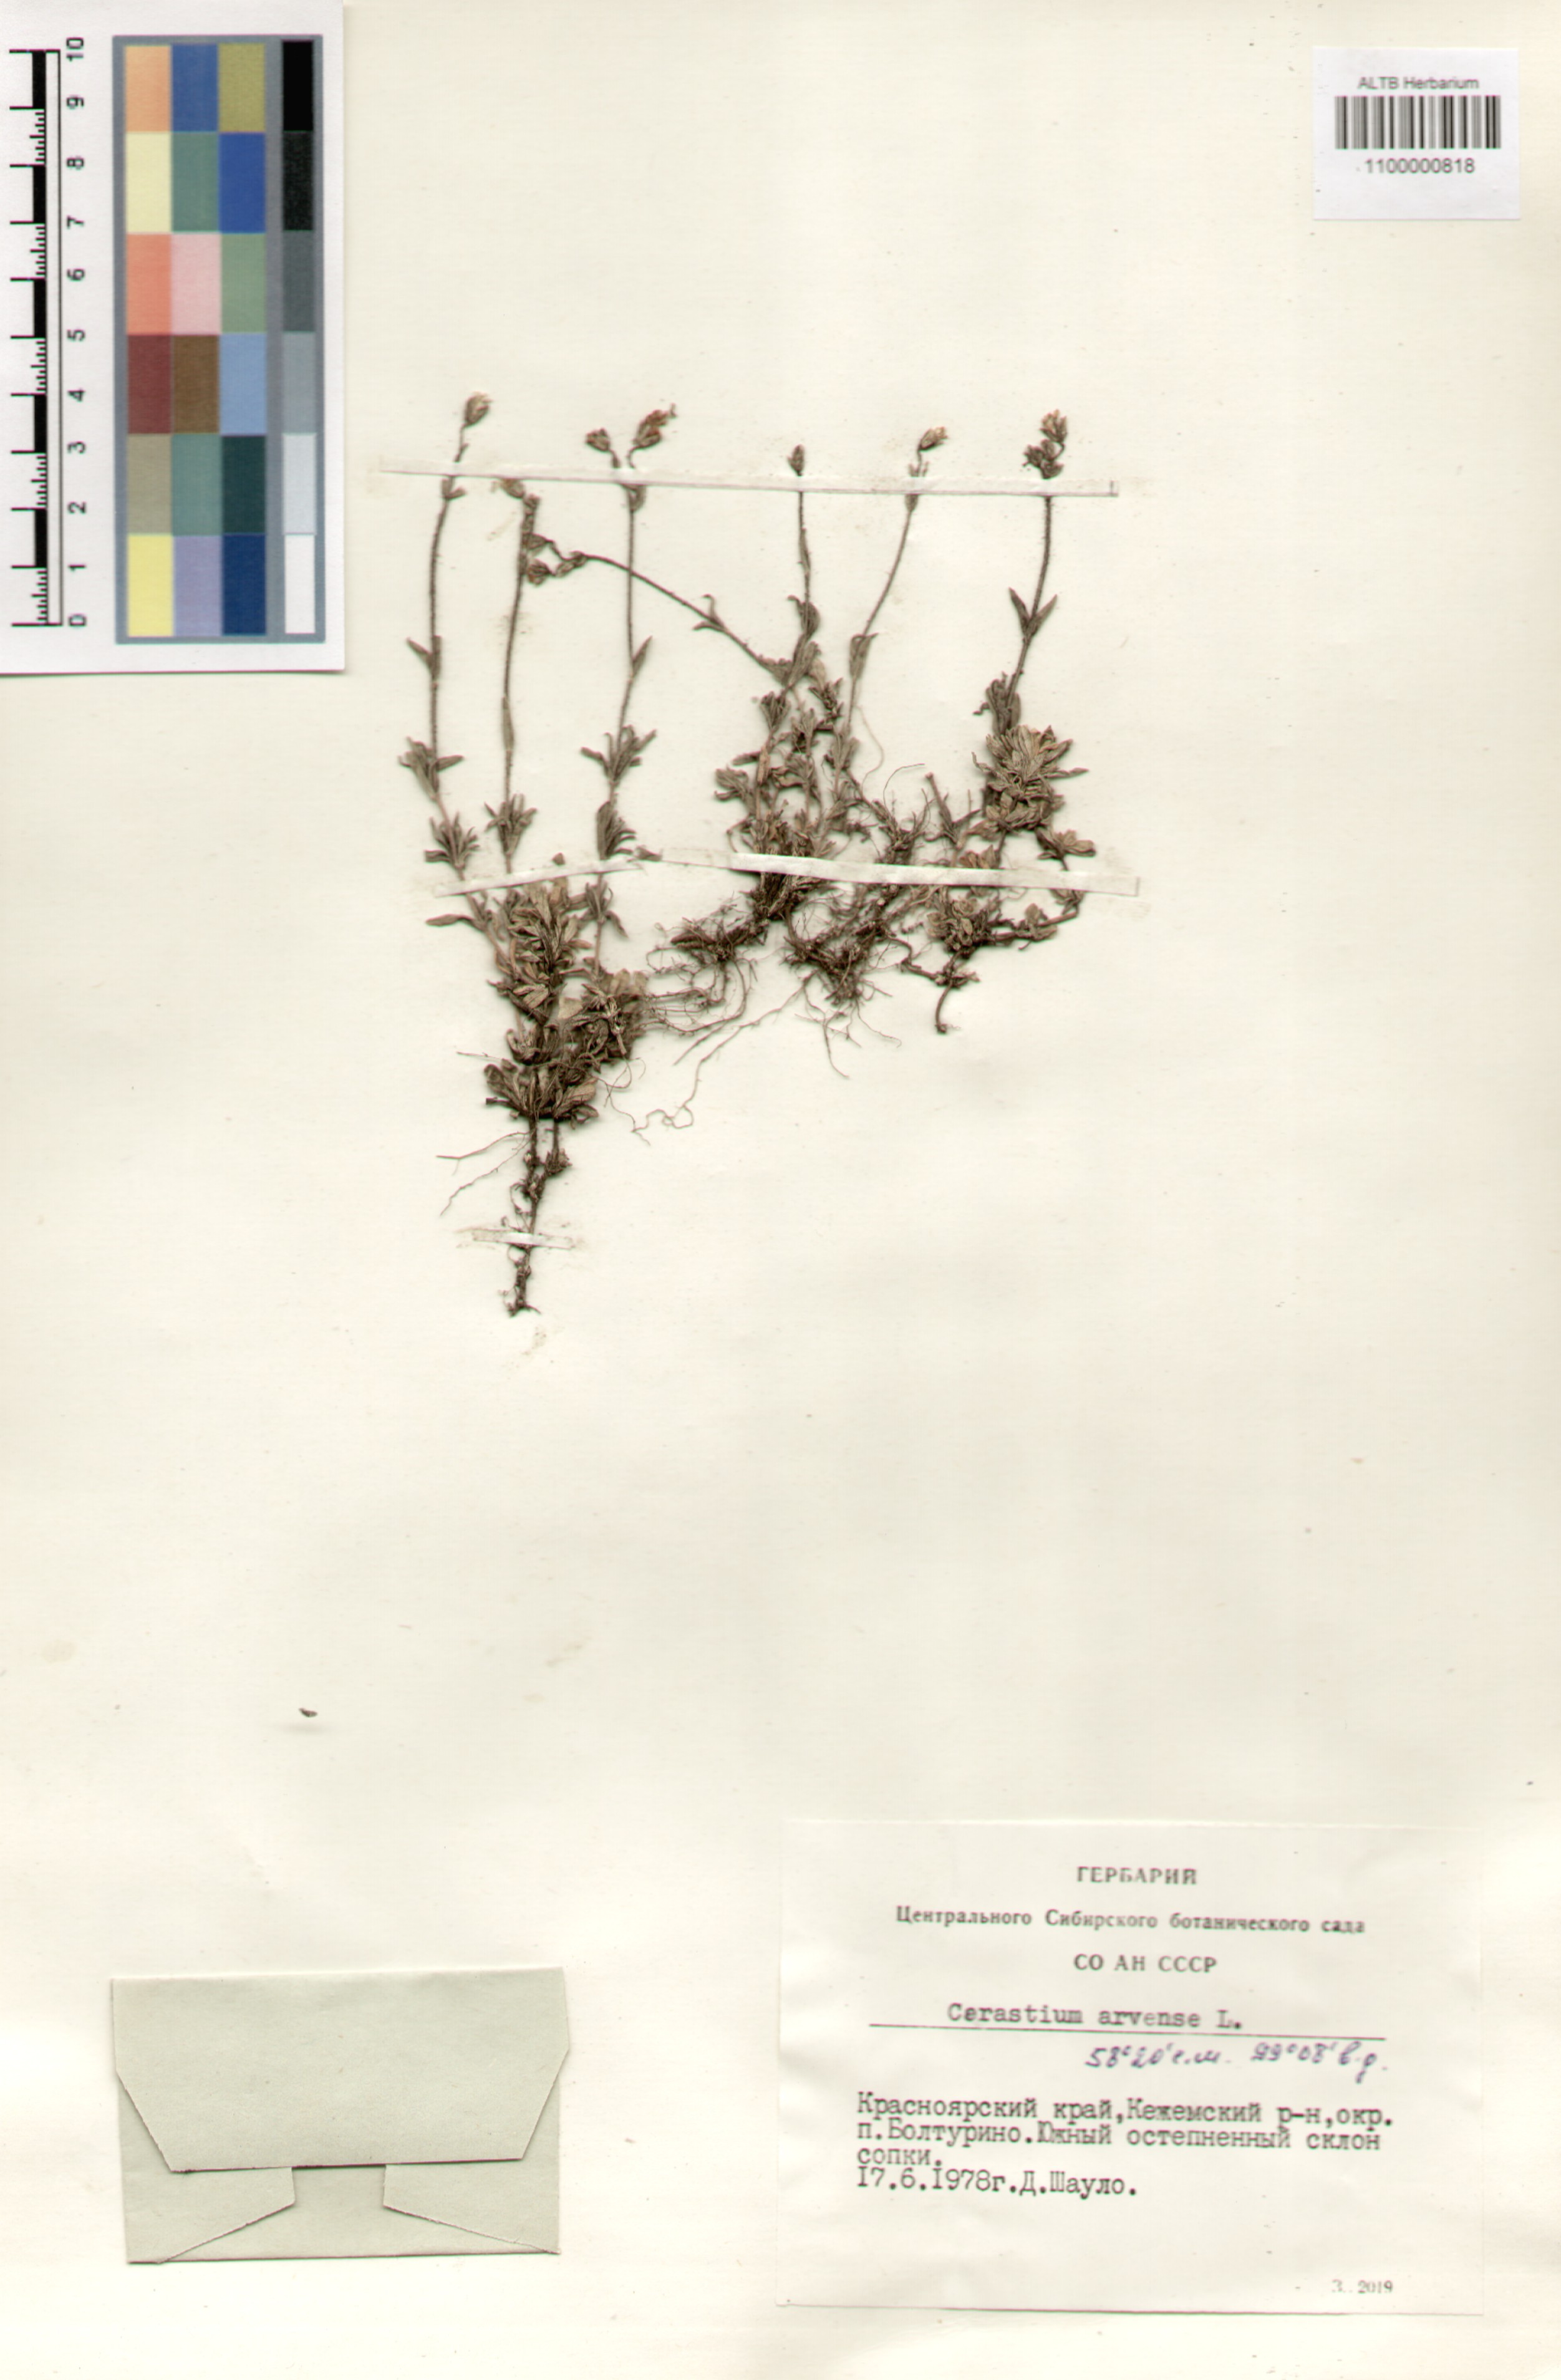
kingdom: Plantae
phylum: Tracheophyta
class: Magnoliopsida
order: Caryophyllales
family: Caryophyllaceae
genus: Cerastium
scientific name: Cerastium arvense
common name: Field mouse-ear
